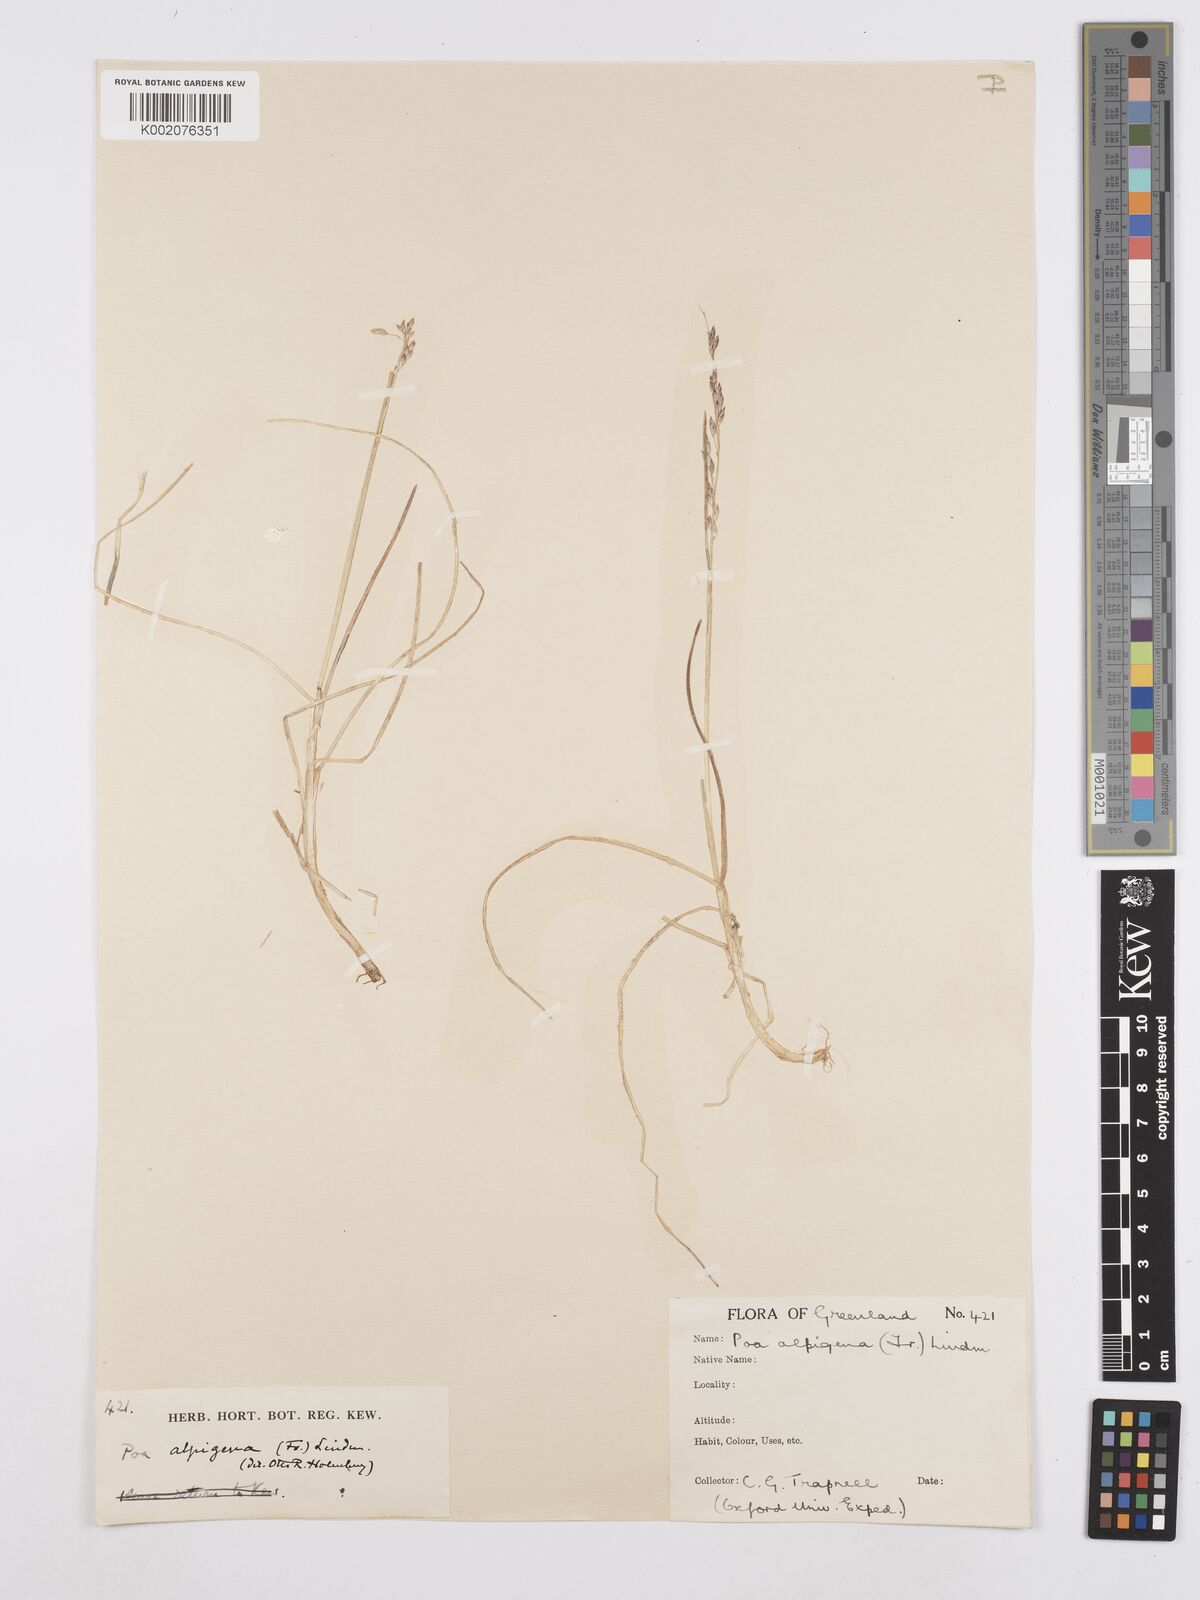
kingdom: Plantae
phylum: Tracheophyta
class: Liliopsida
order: Poales
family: Poaceae
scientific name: Poaceae
